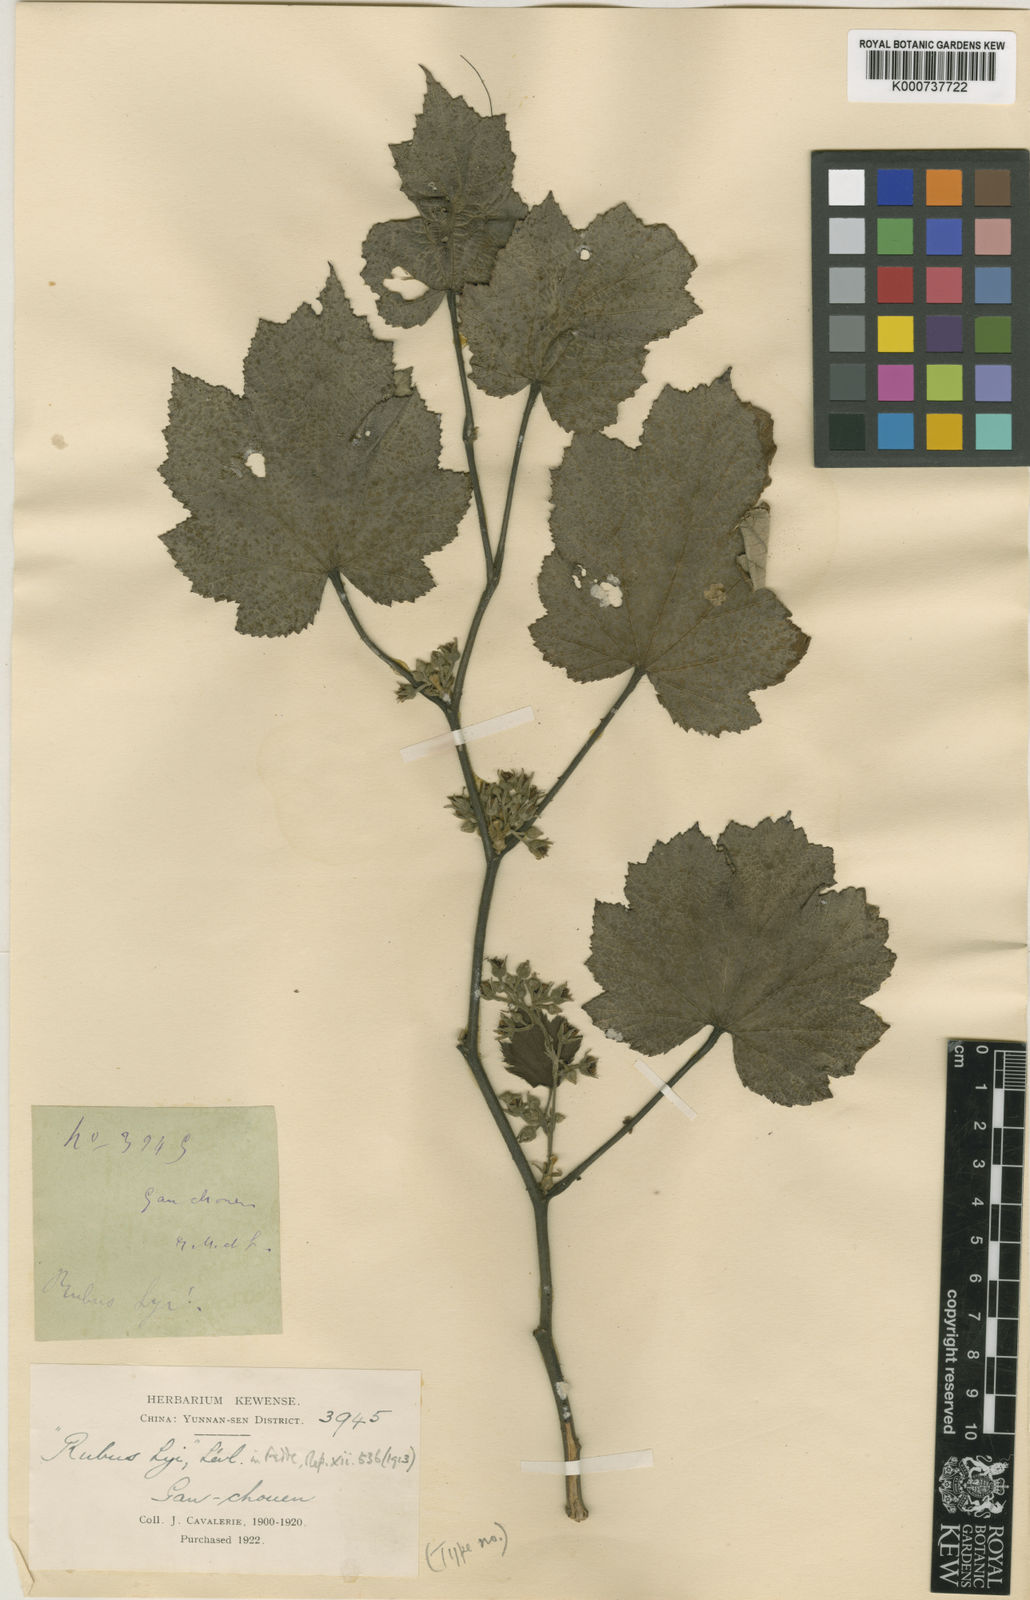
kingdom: Plantae
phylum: Tracheophyta
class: Magnoliopsida
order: Rosales
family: Rosaceae
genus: Rubus
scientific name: Rubus
